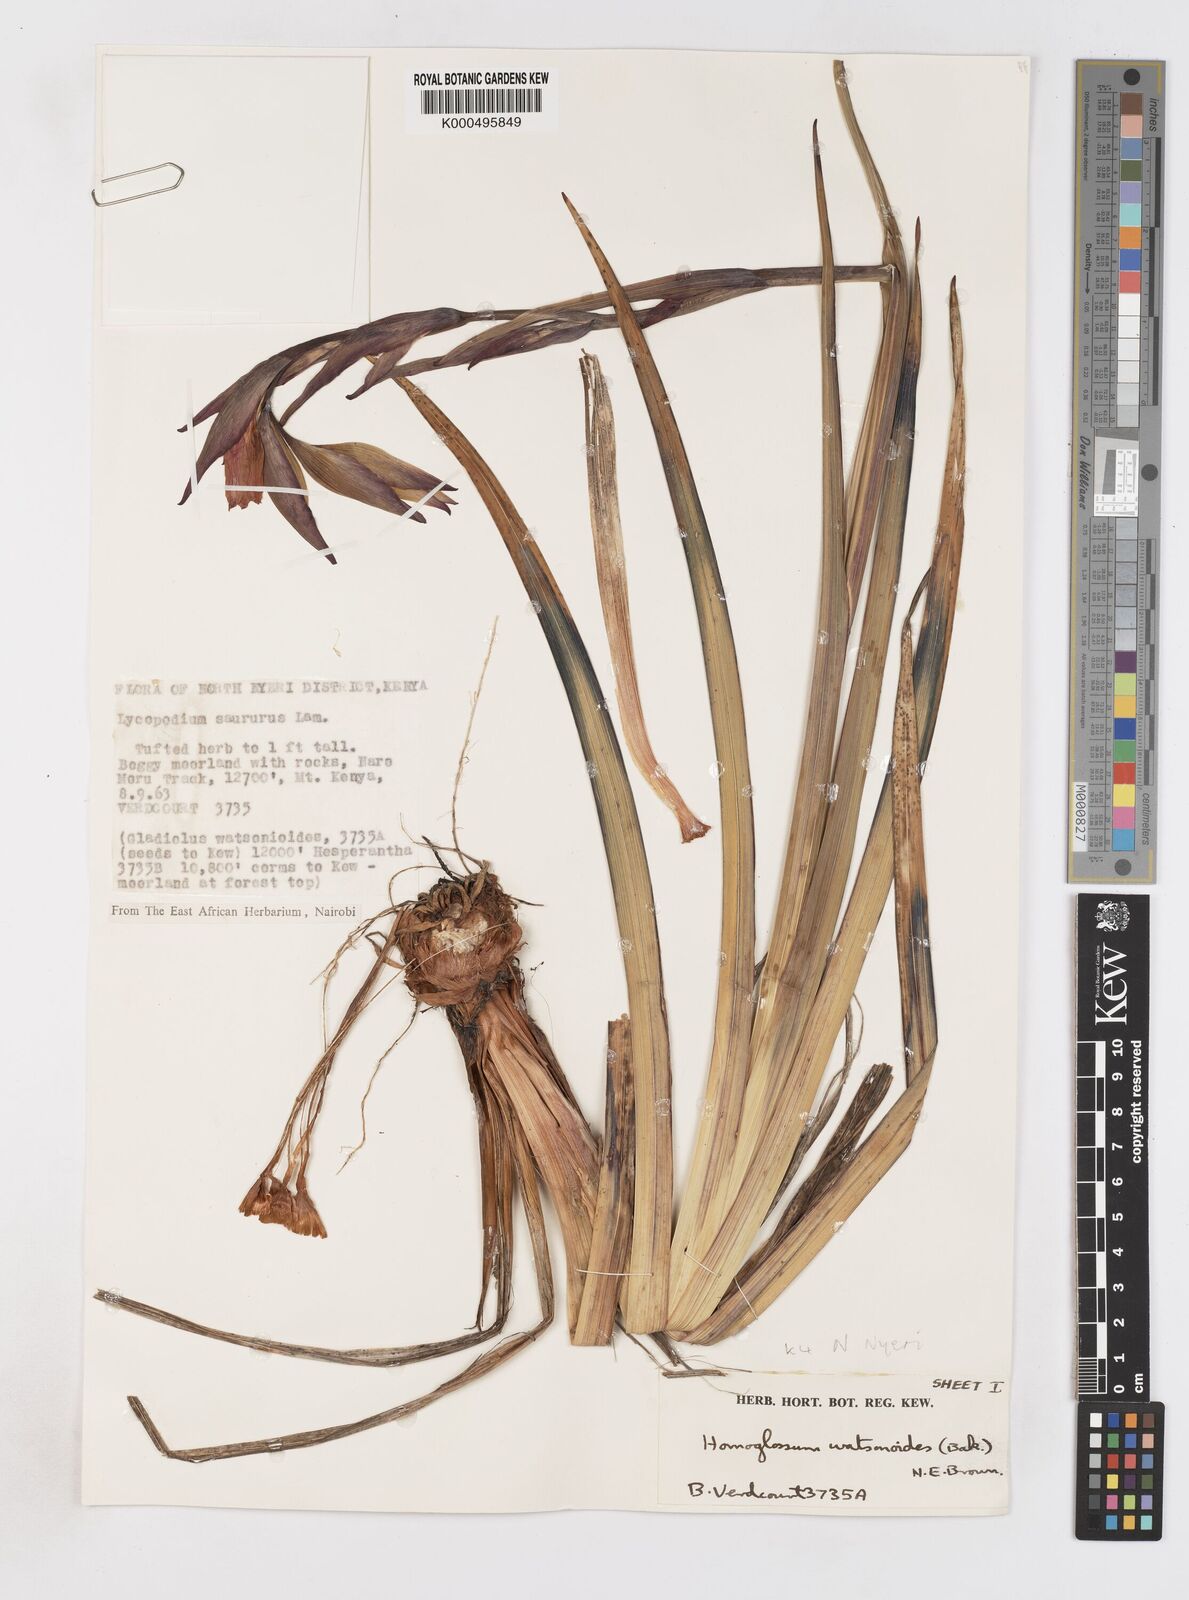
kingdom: Plantae
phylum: Tracheophyta
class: Liliopsida
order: Asparagales
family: Iridaceae
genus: Gladiolus
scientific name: Gladiolus watsonioides
